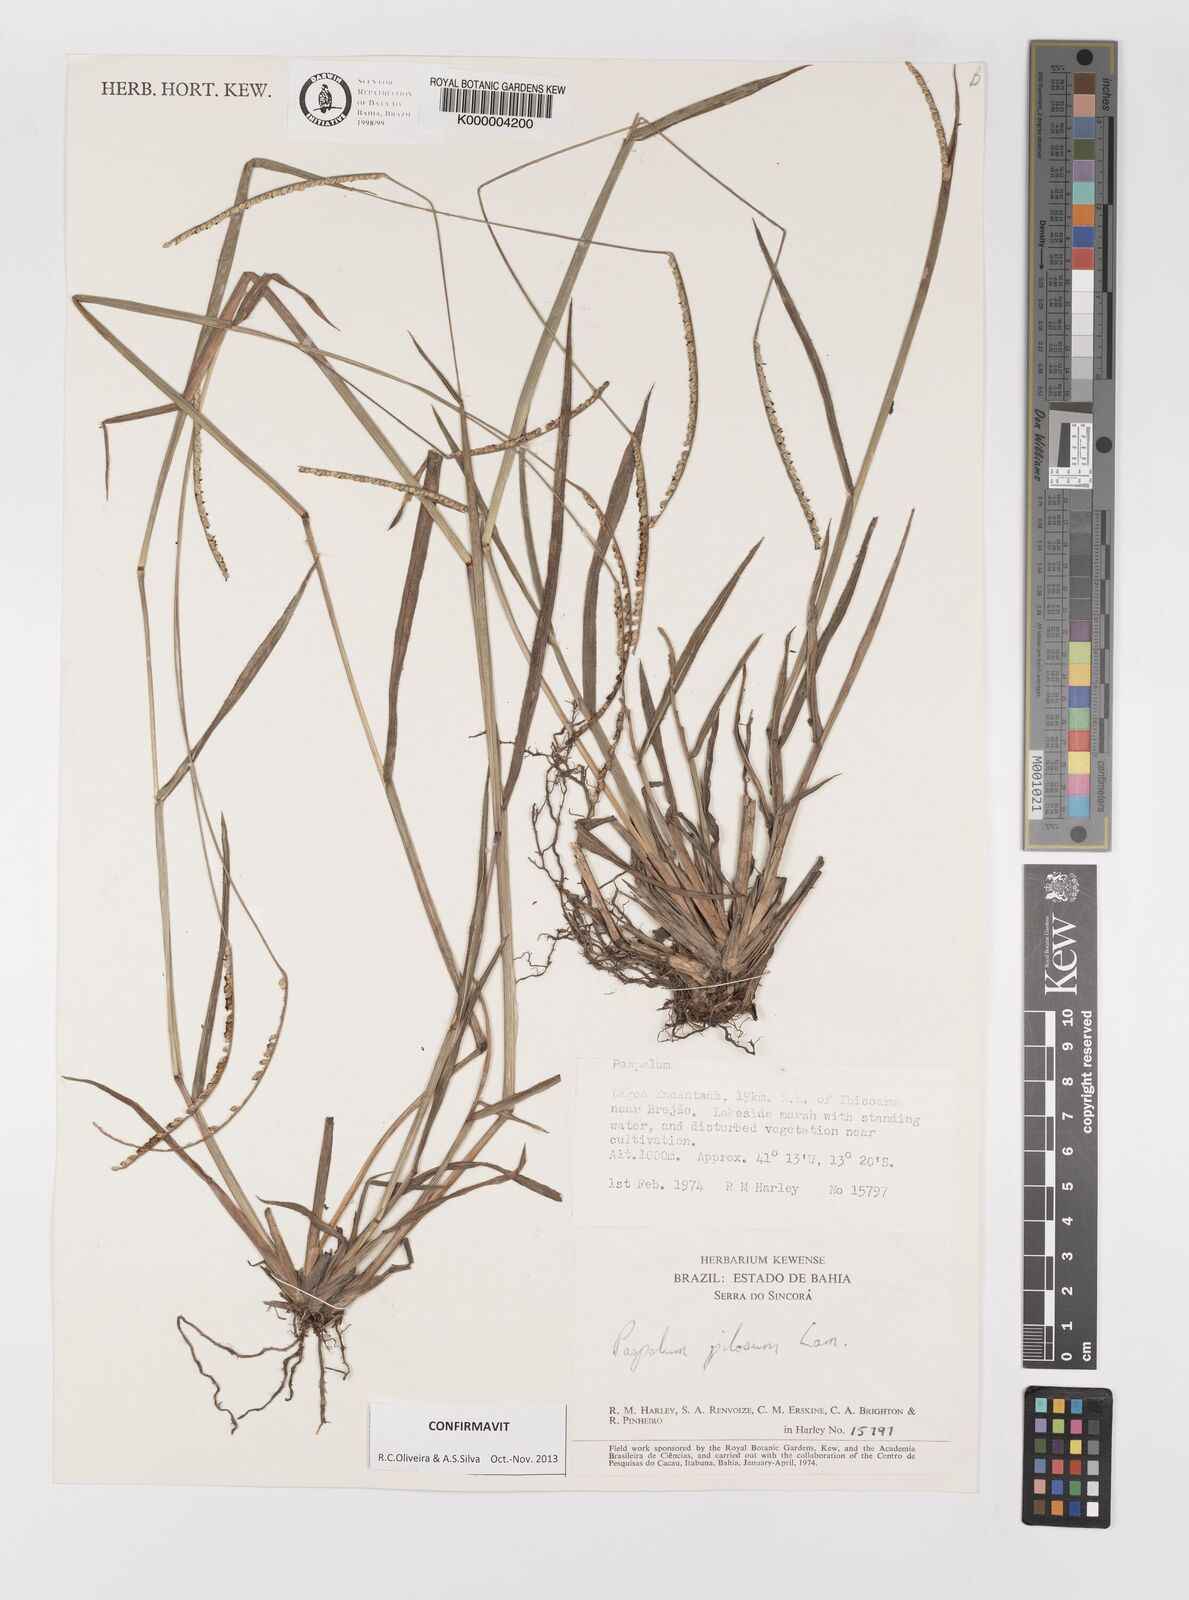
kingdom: Plantae
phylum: Tracheophyta
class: Liliopsida
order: Poales
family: Poaceae
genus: Paspalum
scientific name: Paspalum pilosum
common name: Crowngrass
